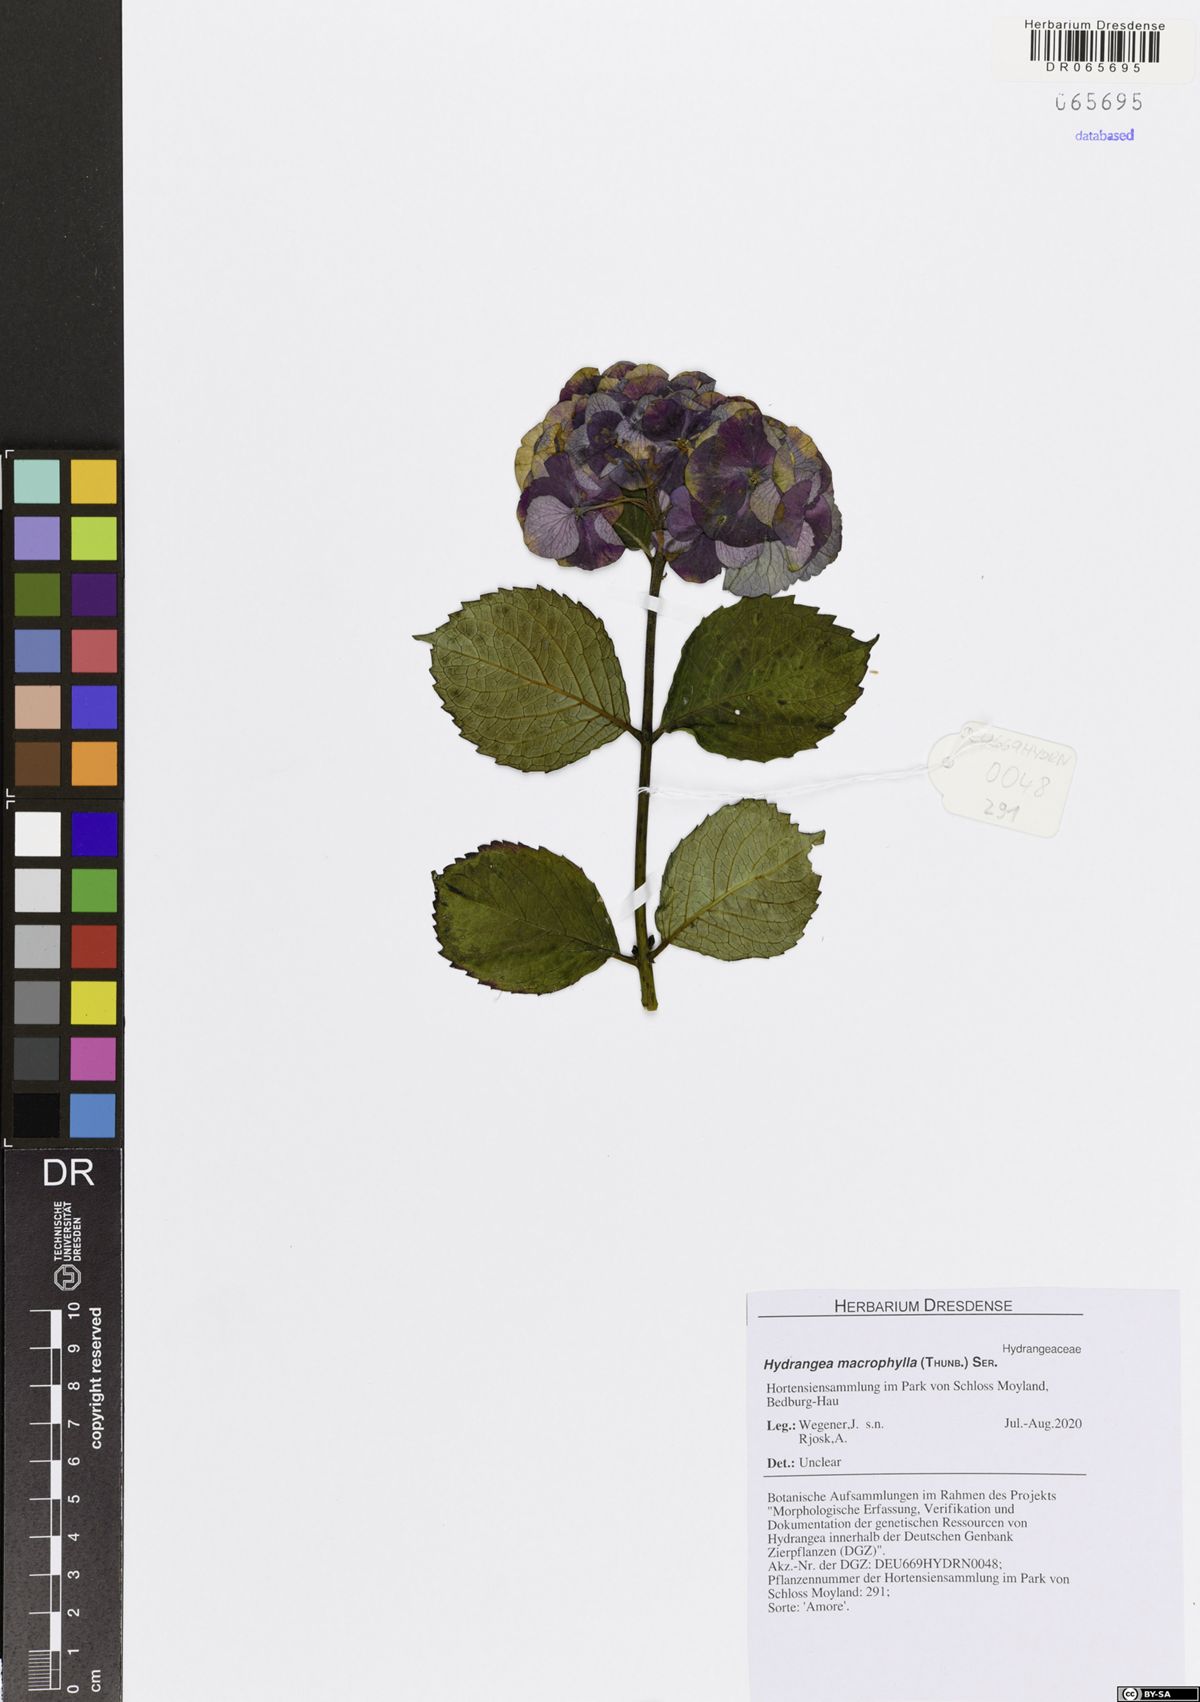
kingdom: Plantae
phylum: Tracheophyta
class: Magnoliopsida
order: Cornales
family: Hydrangeaceae
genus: Hydrangea
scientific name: Hydrangea macrophylla
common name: Hydrangea
